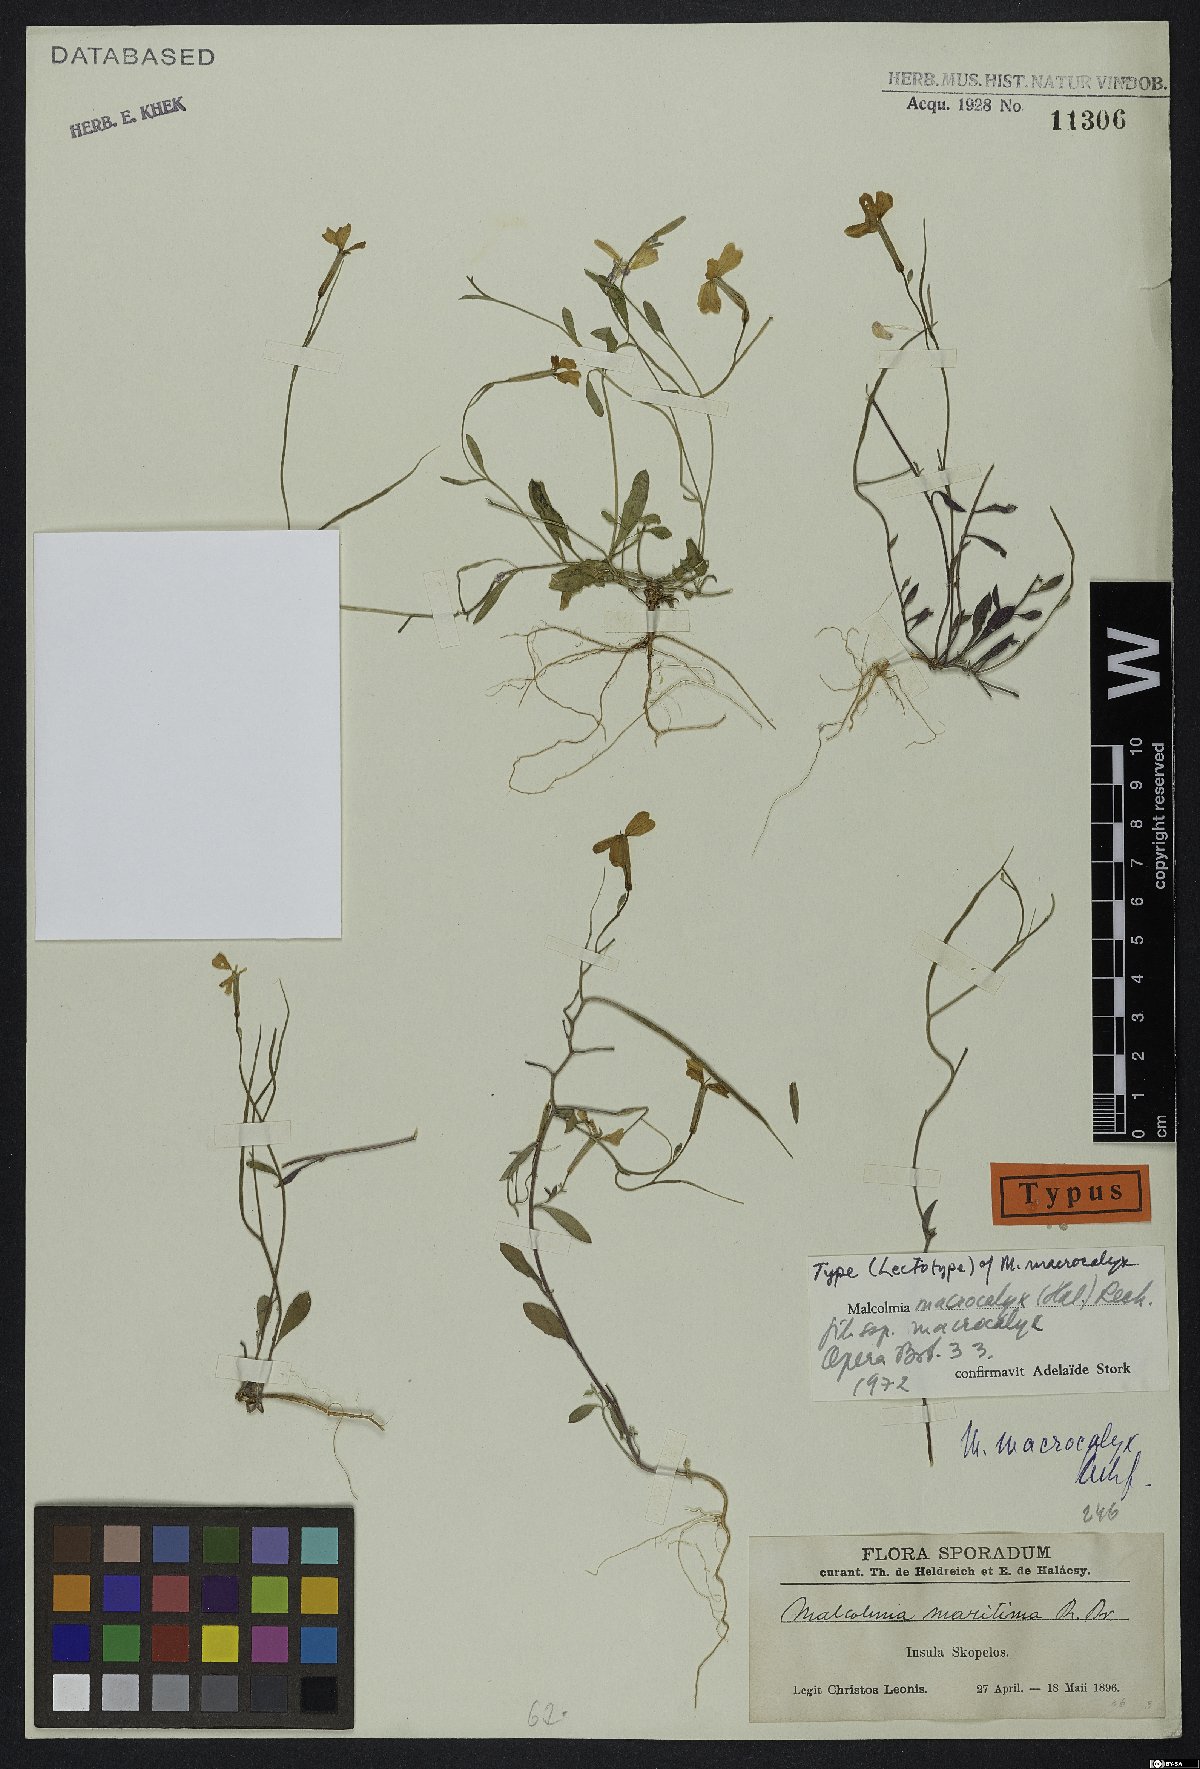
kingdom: Plantae
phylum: Tracheophyta
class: Magnoliopsida
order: Brassicales
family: Brassicaceae
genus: Malcolmia
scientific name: Malcolmia macrocalyx
